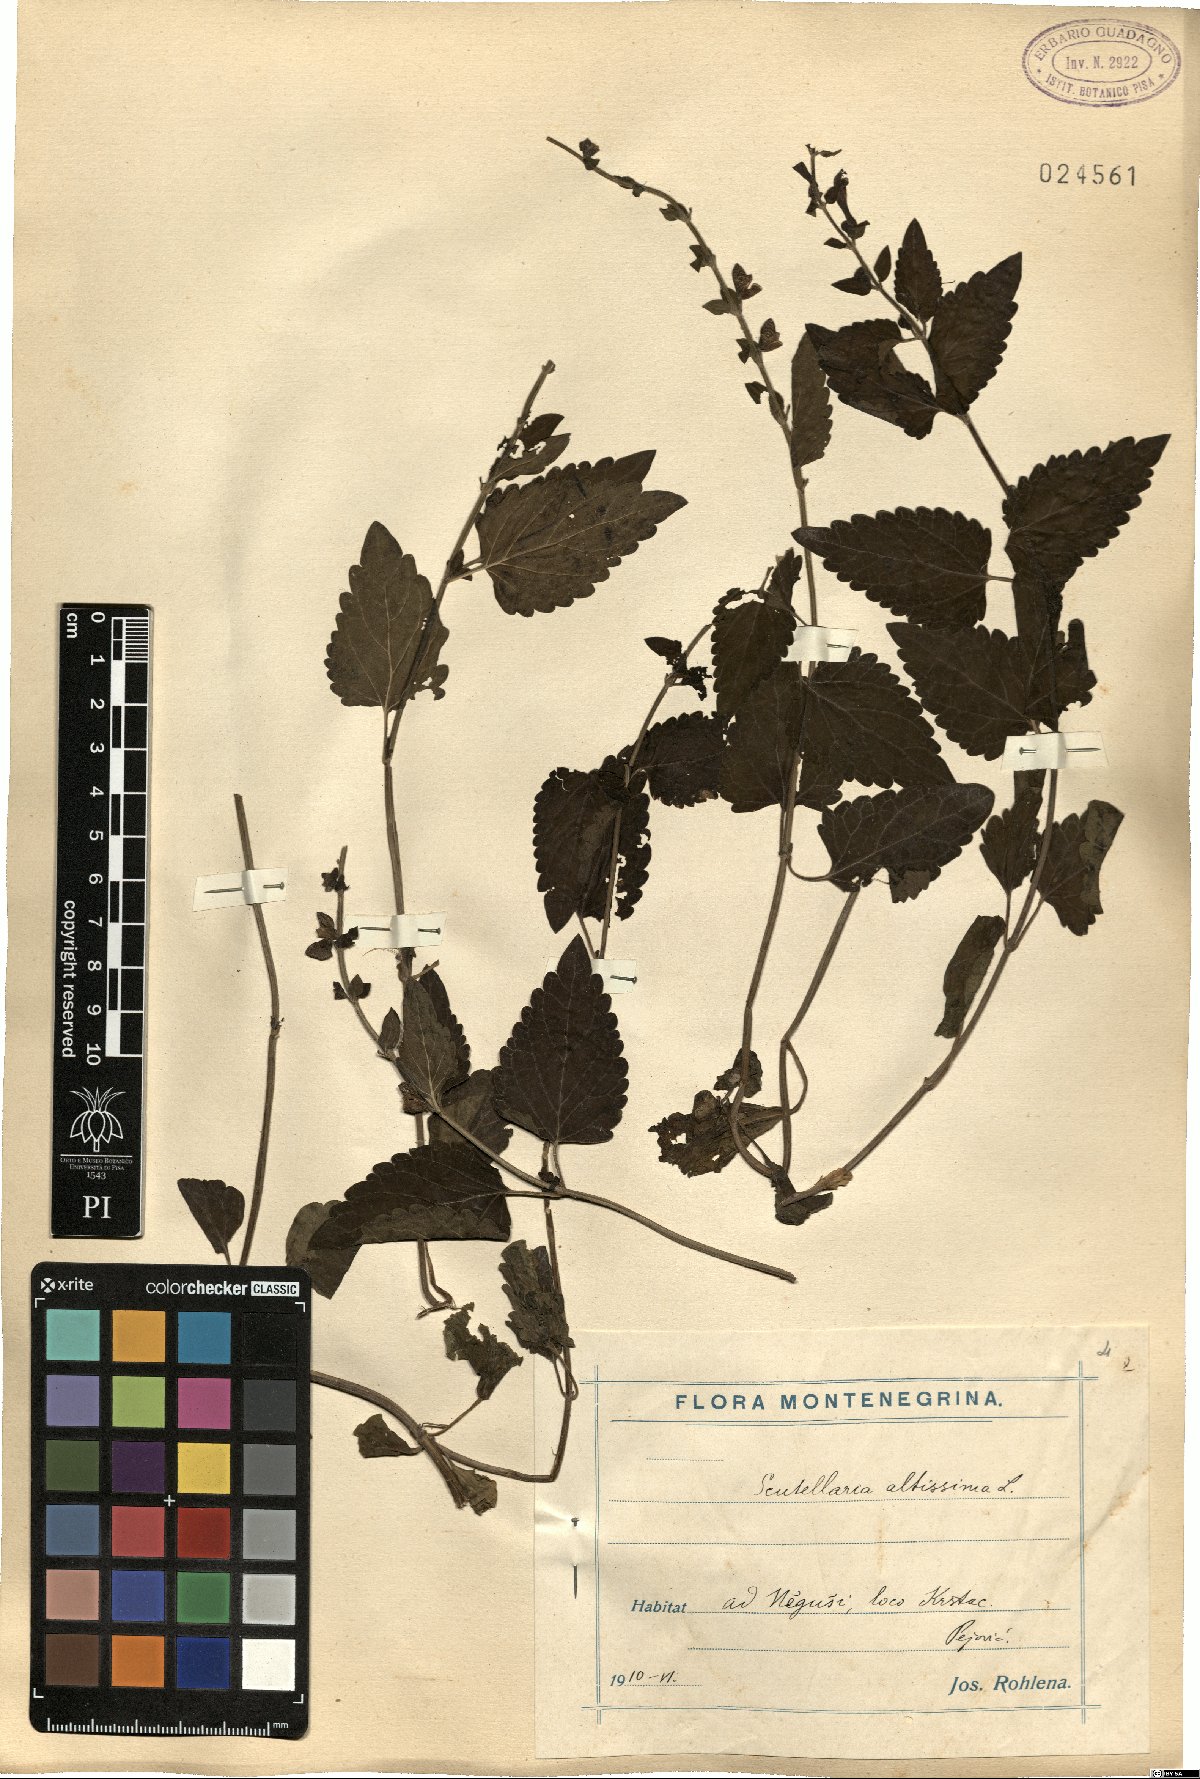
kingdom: Plantae
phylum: Tracheophyta
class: Magnoliopsida
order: Lamiales
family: Lamiaceae
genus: Scutellaria
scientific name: Scutellaria altissima
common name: Somerset skullcap
